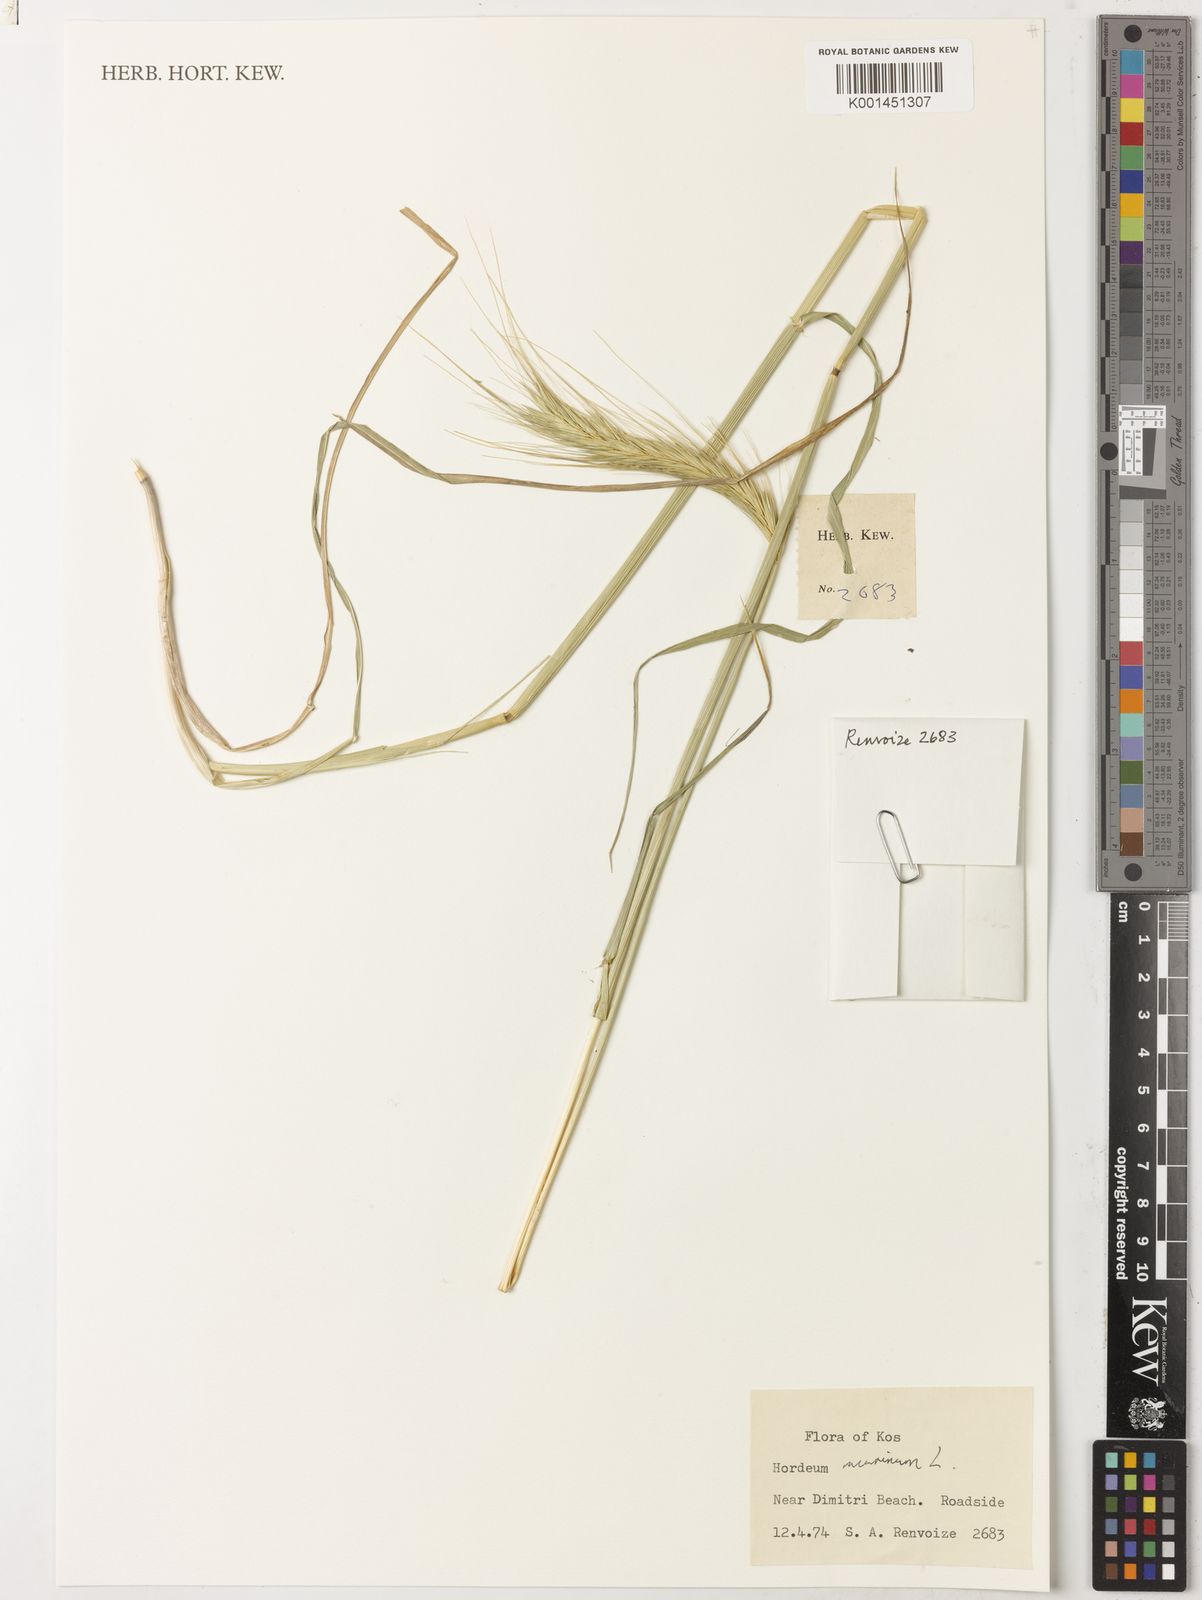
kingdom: Plantae
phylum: Tracheophyta
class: Liliopsida
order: Poales
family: Poaceae
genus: Hordeum
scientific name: Hordeum murinum
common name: Wall barley
